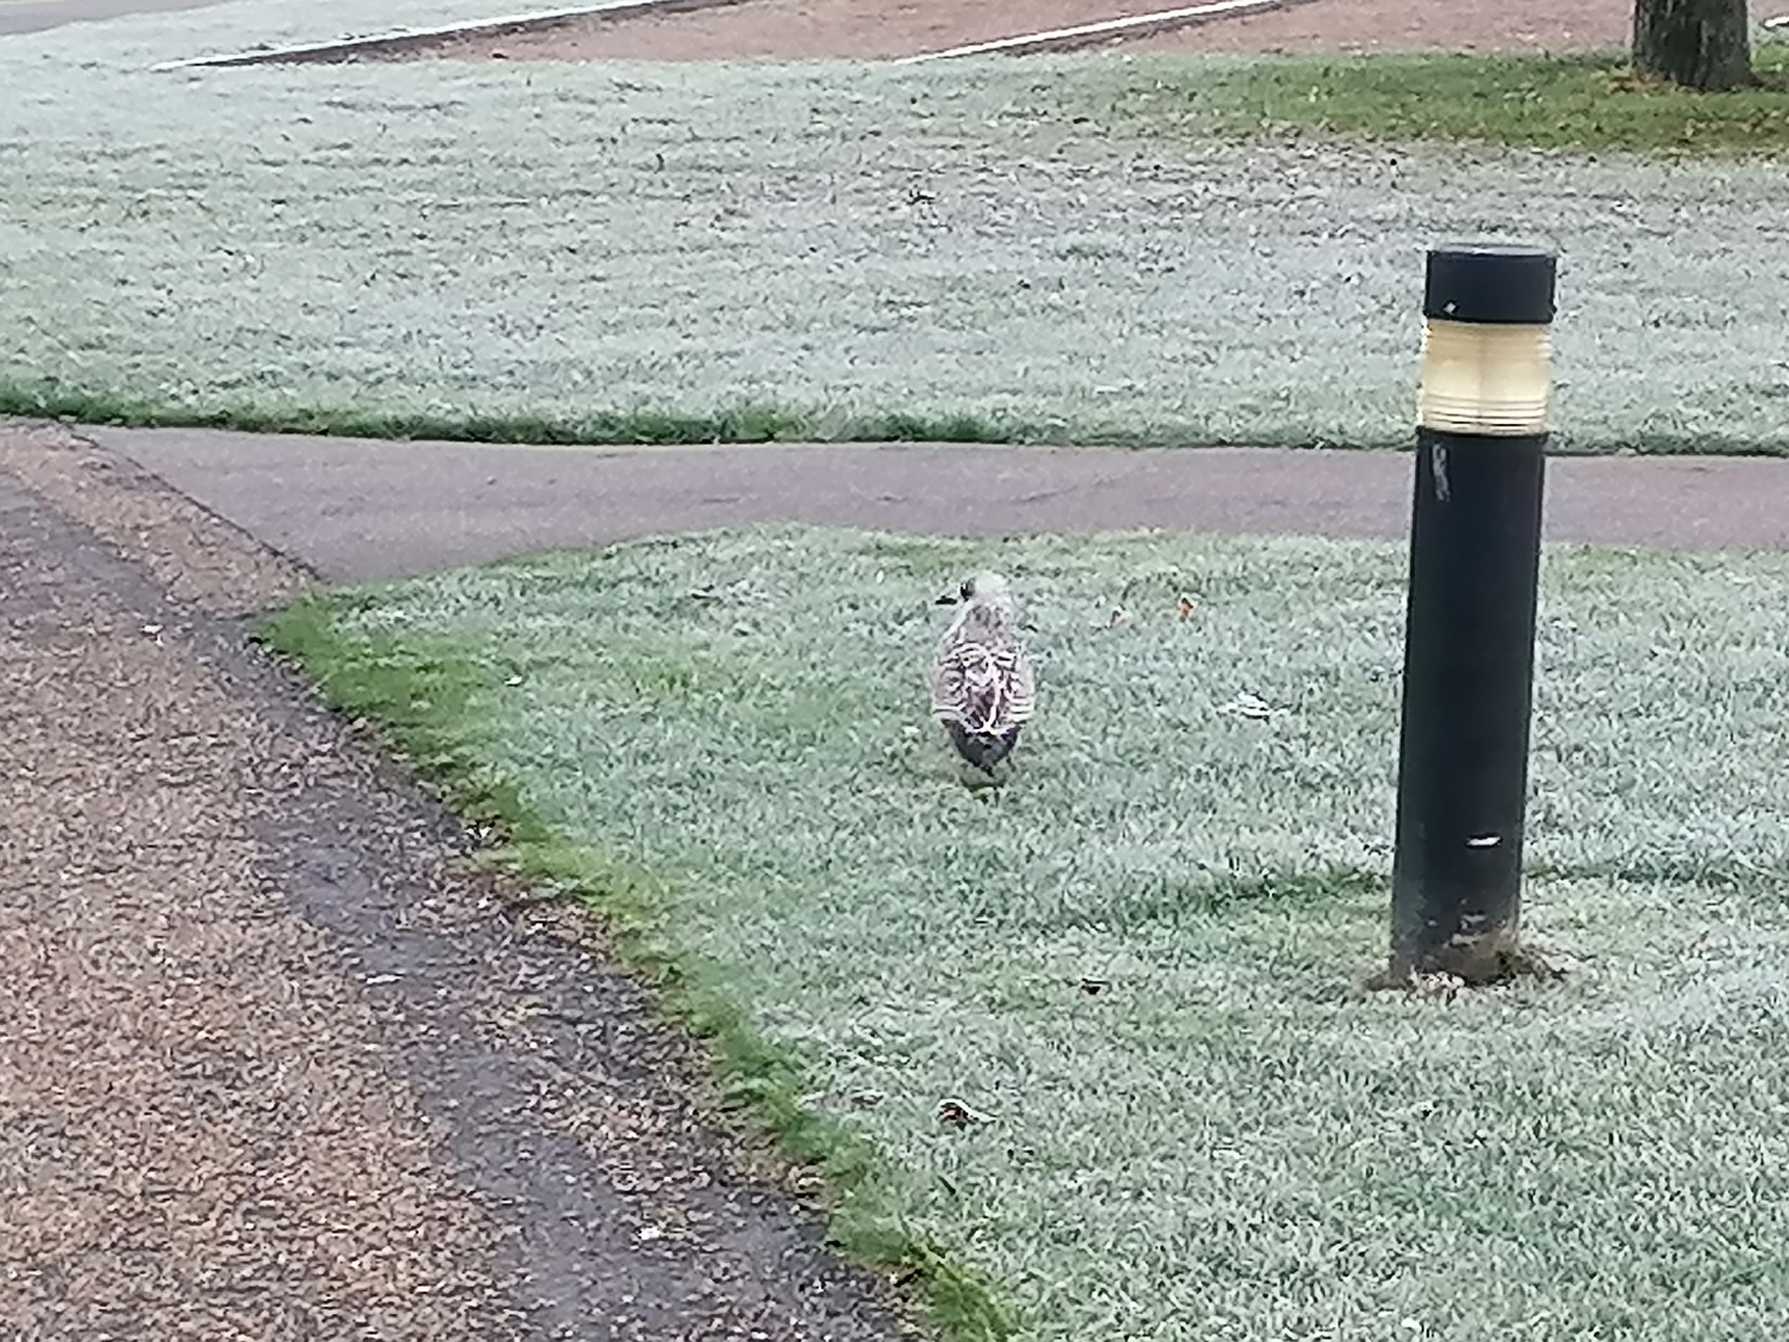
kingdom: Animalia
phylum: Chordata
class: Aves
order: Charadriiformes
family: Laridae
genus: Larus
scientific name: Larus argentatus
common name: Sølvmåge
